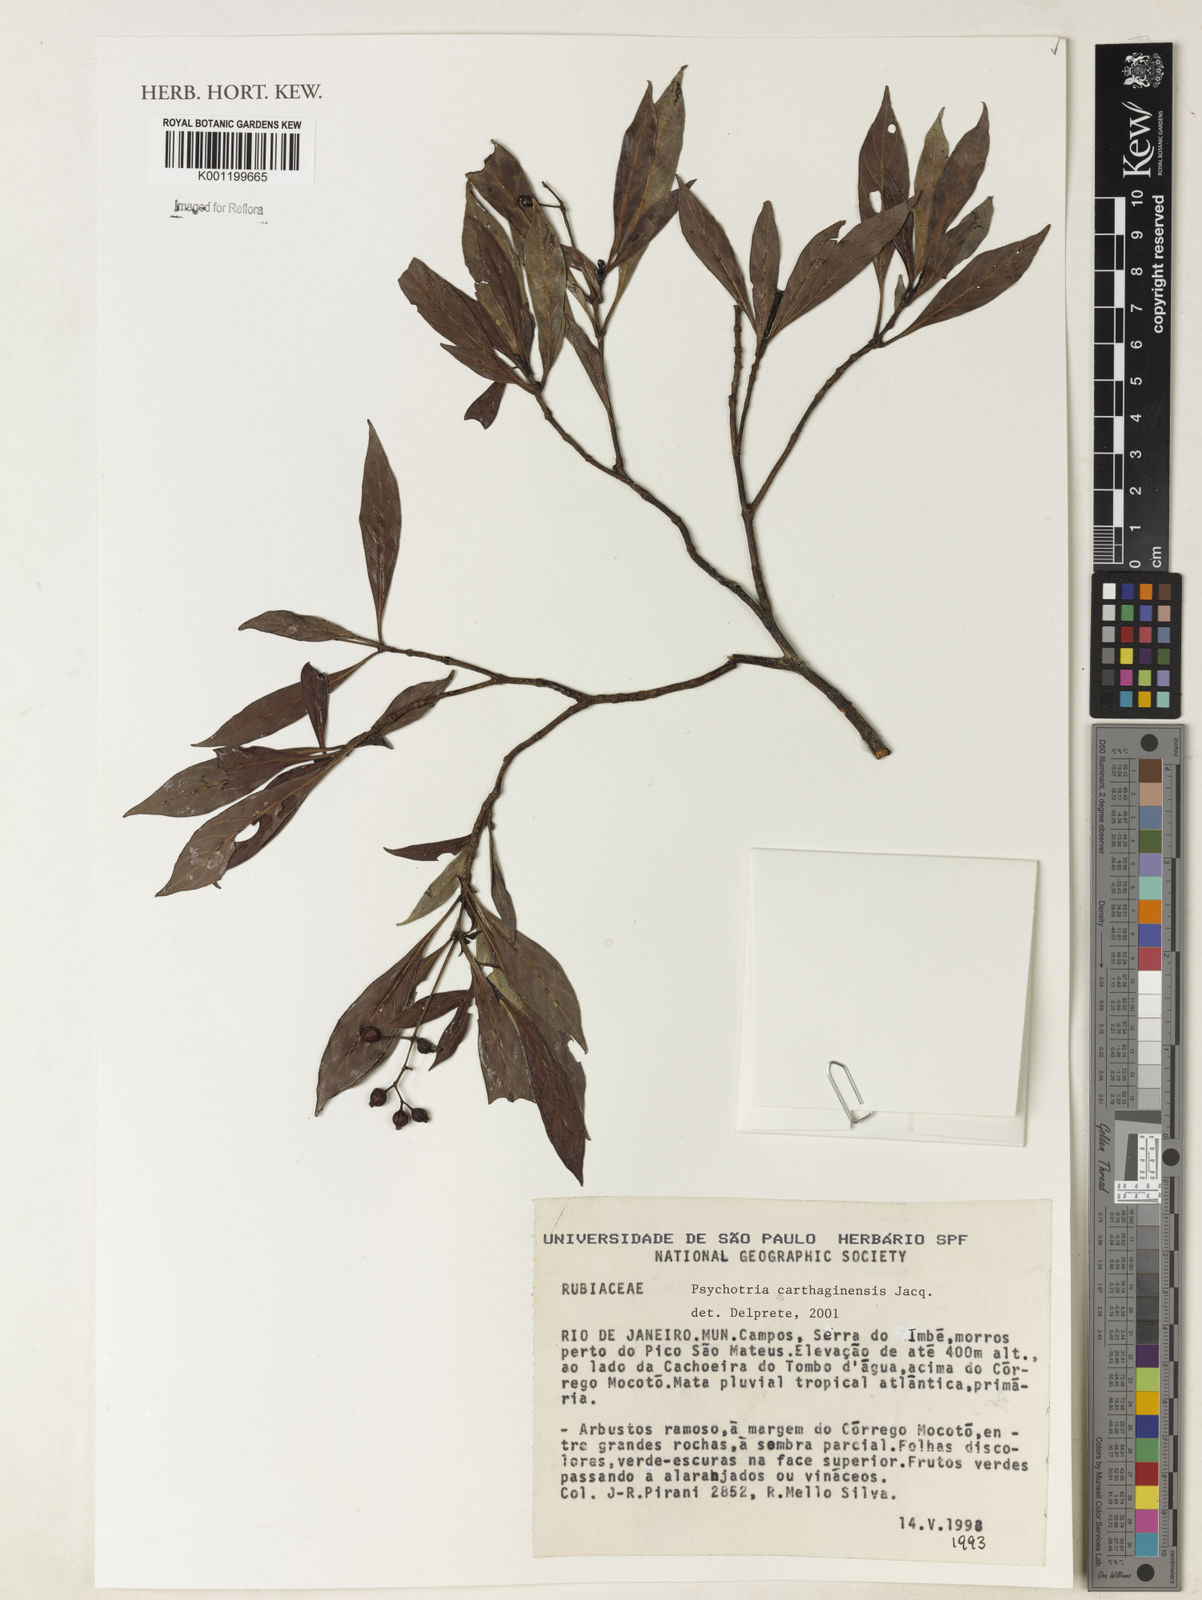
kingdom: Plantae
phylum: Tracheophyta
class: Magnoliopsida
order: Gentianales
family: Rubiaceae
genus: Psychotria
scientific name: Psychotria carthagenensis
